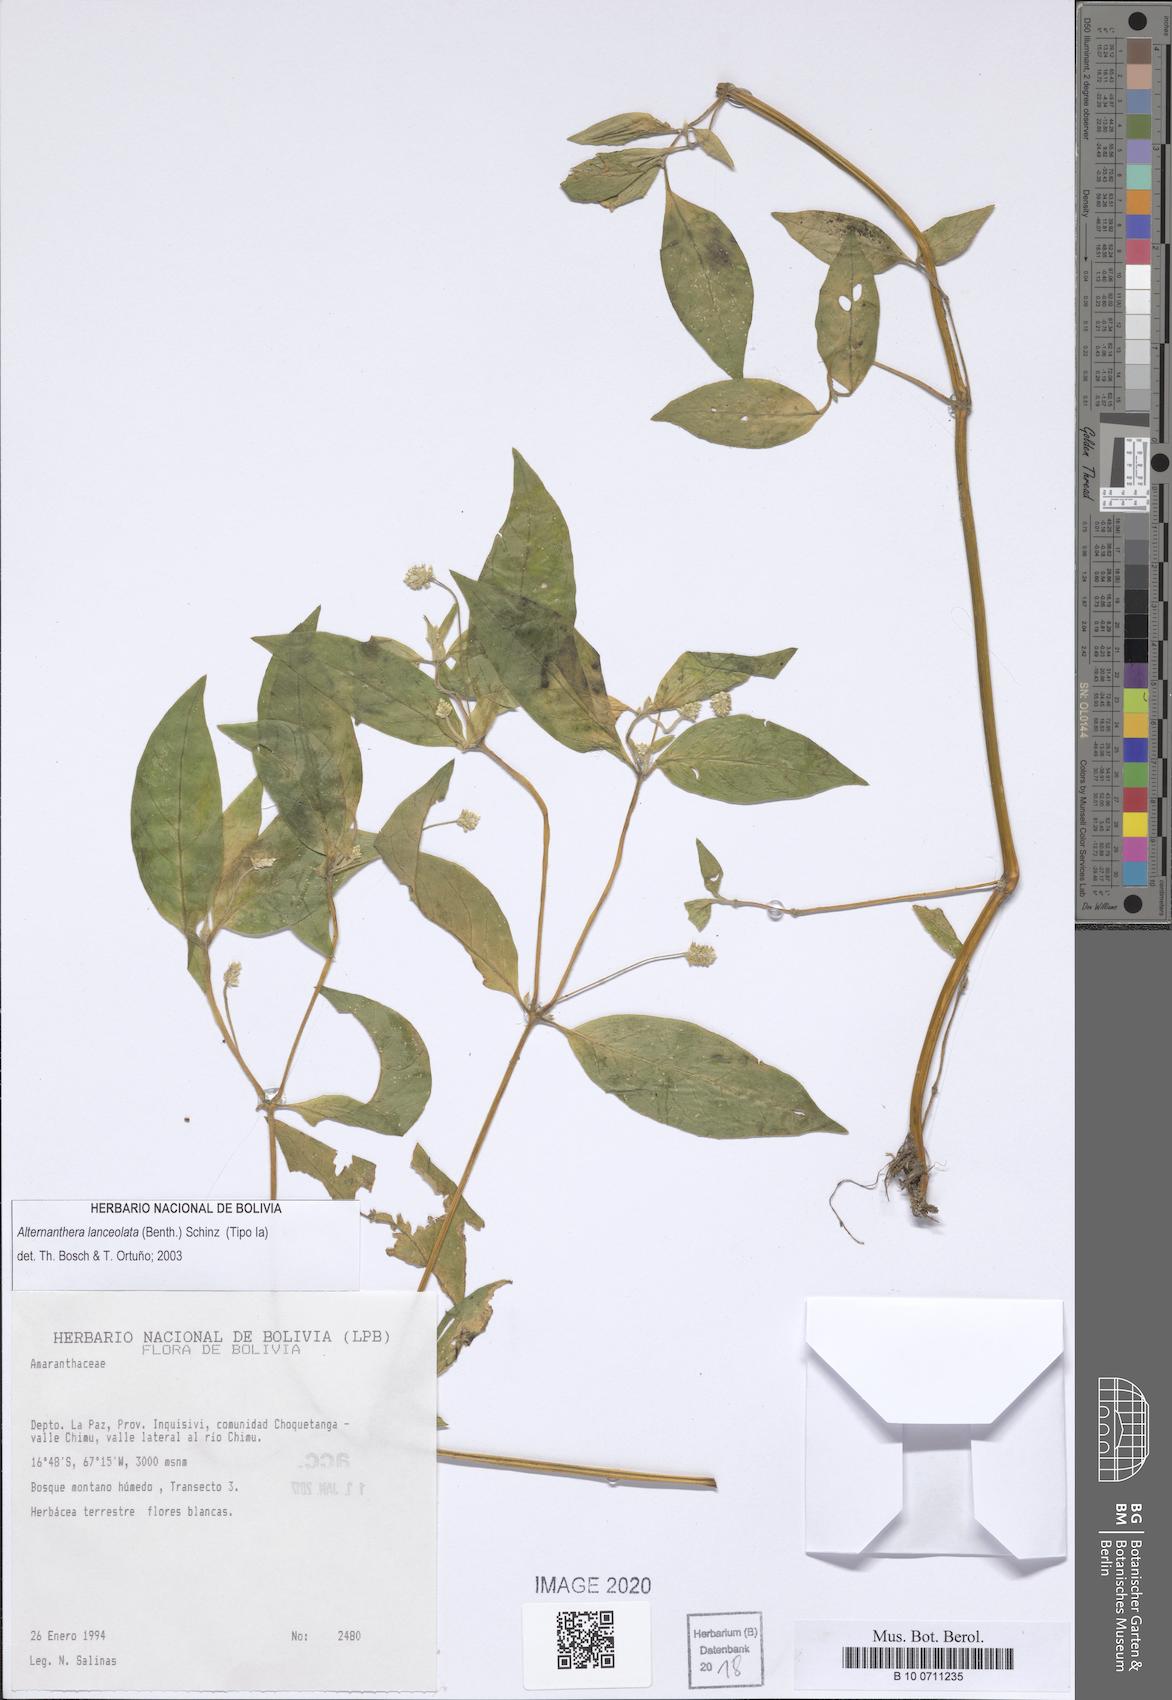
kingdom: Plantae
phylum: Tracheophyta
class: Magnoliopsida
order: Caryophyllales
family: Amaranthaceae
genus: Alternanthera
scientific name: Alternanthera lanceolata
